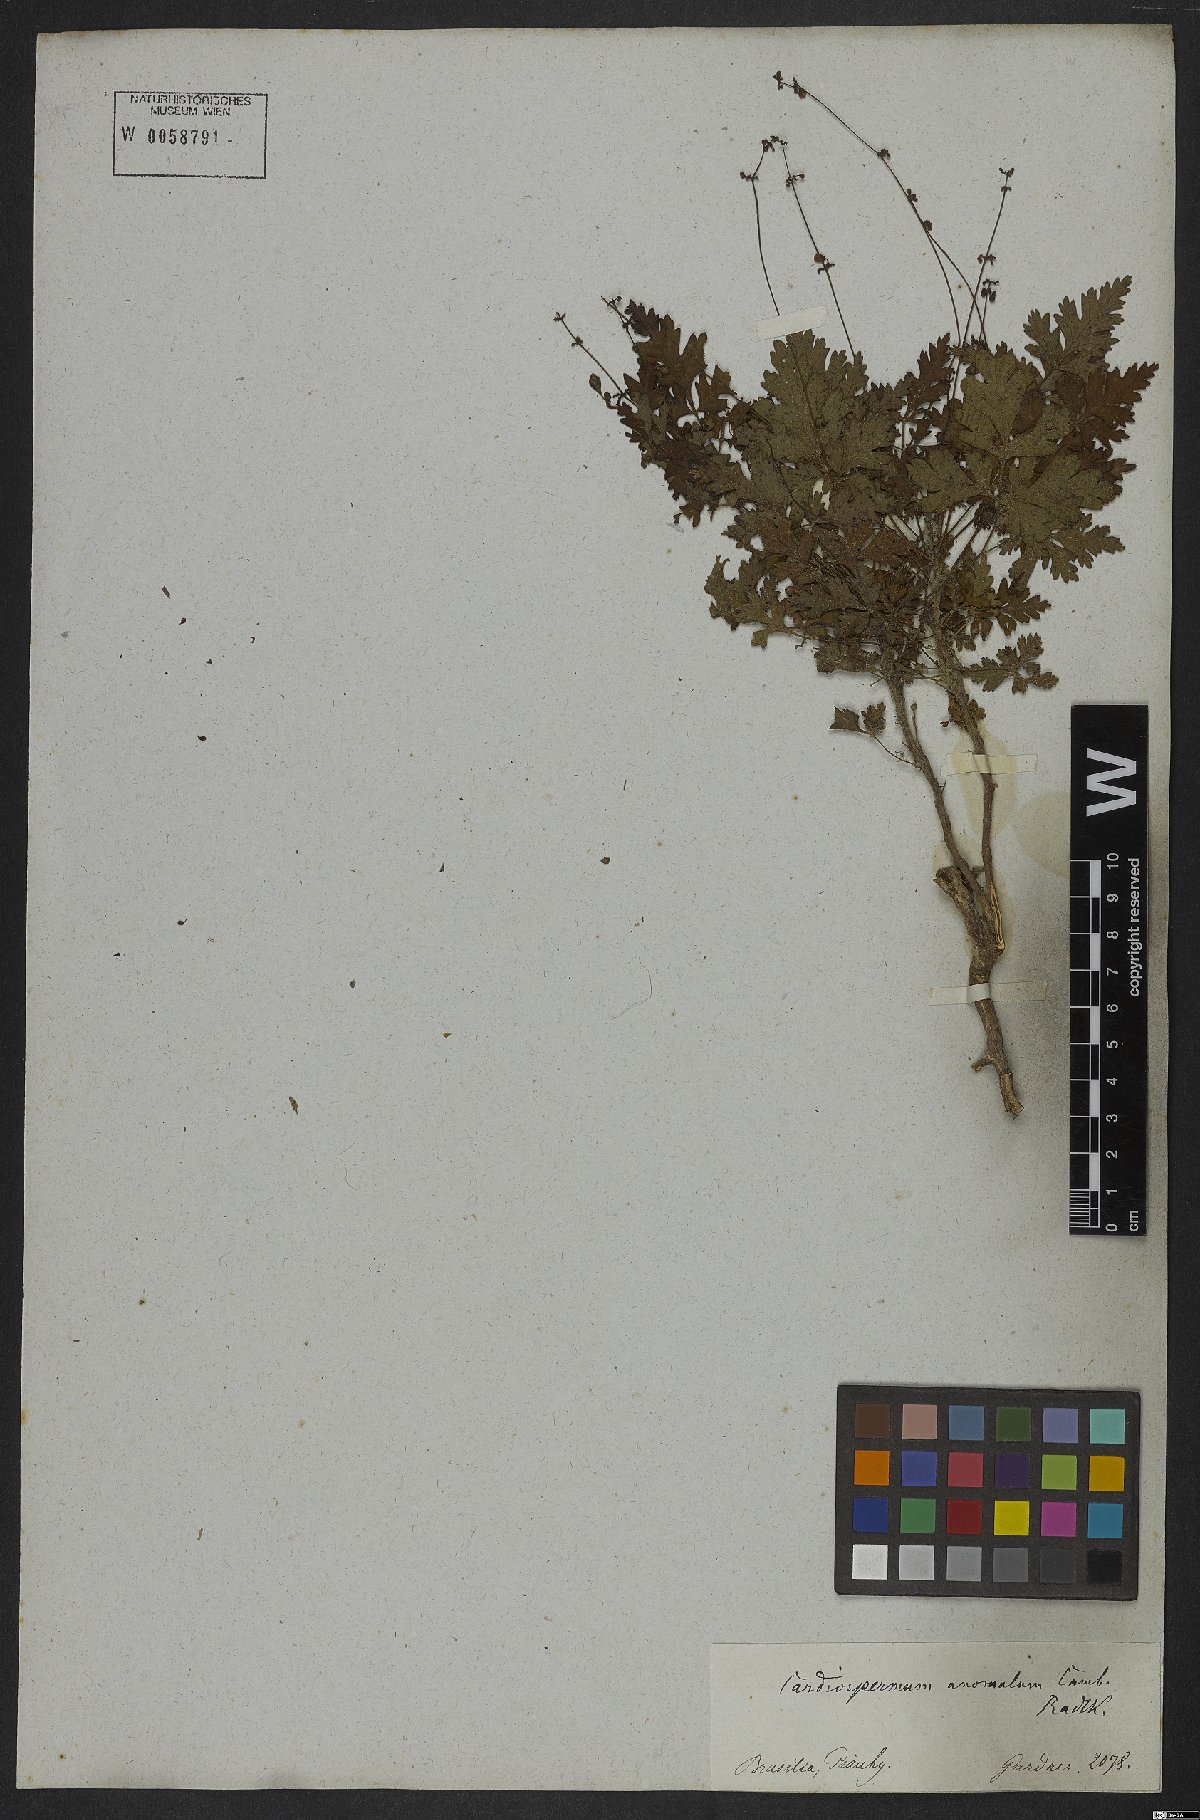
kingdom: Plantae
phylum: Tracheophyta
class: Magnoliopsida
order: Sapindales
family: Sapindaceae
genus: Cardiospermum
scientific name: Cardiospermum anomalum
